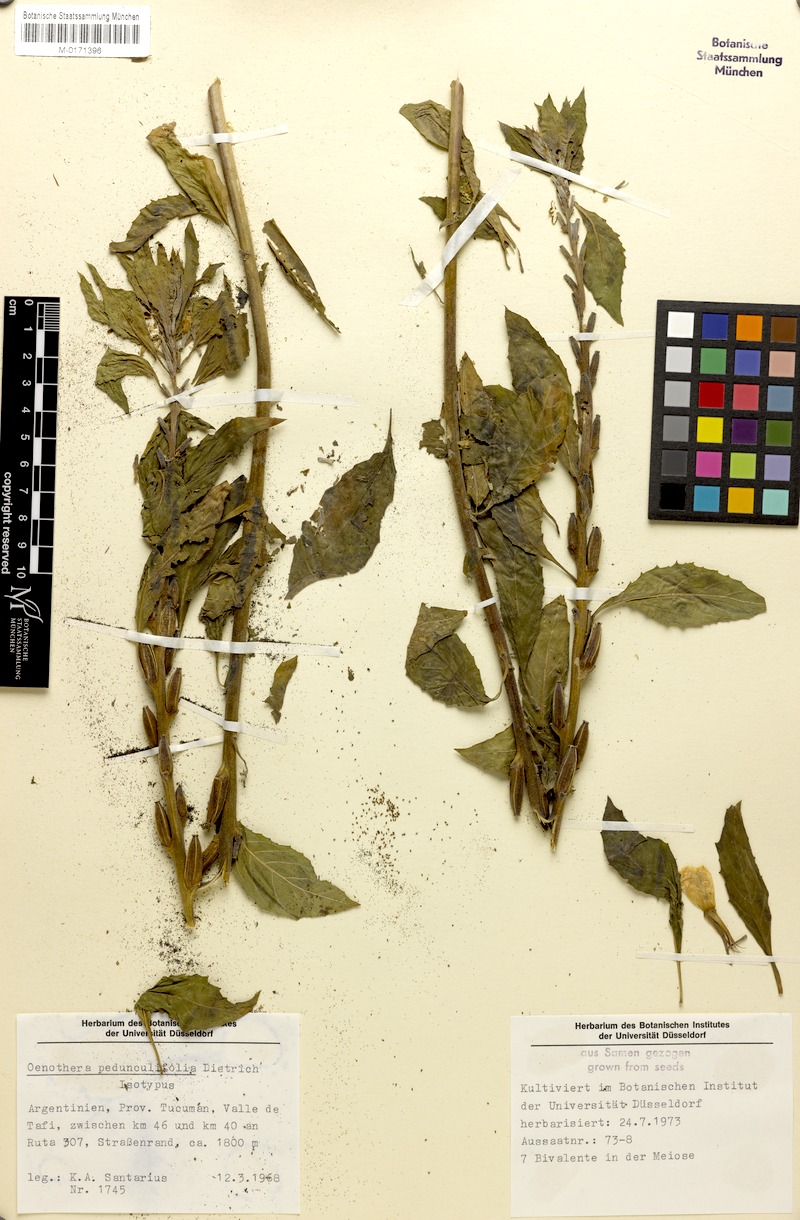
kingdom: Plantae
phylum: Tracheophyta
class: Magnoliopsida
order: Myrtales
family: Onagraceae
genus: Oenothera
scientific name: Oenothera pedunculifolia
